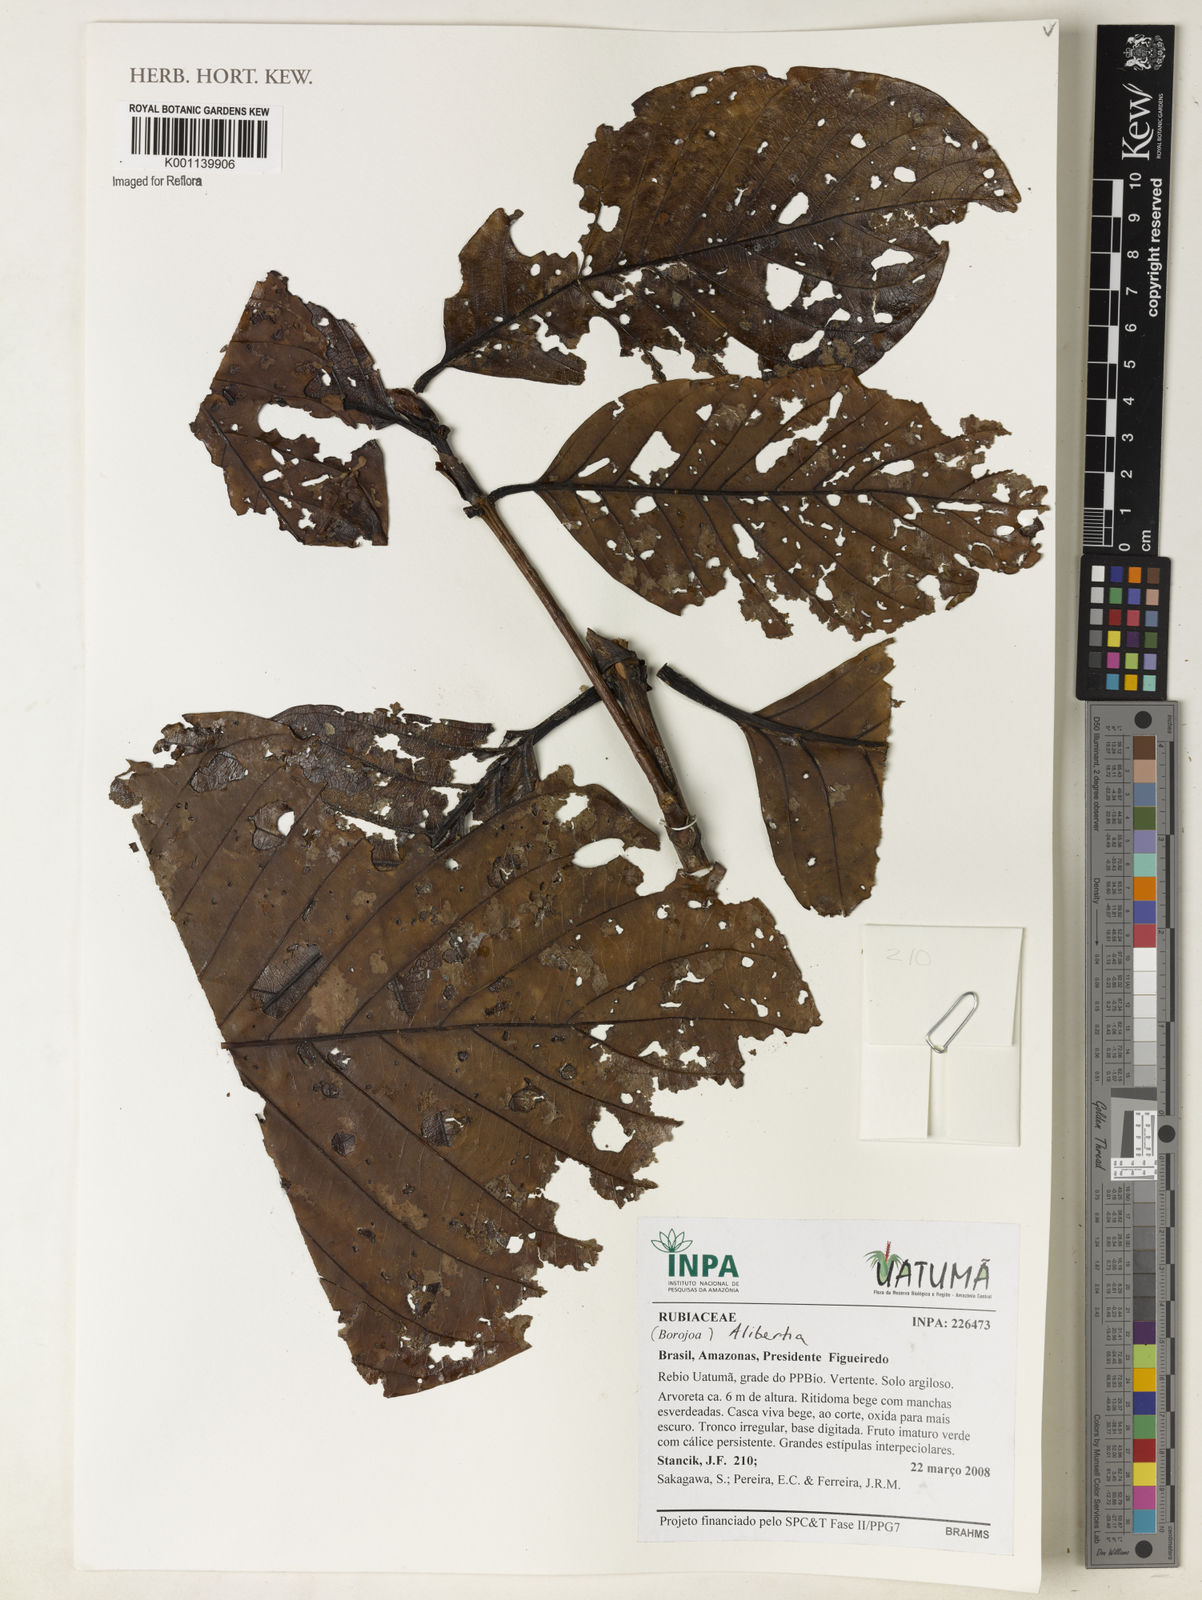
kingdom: Plantae
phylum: Tracheophyta
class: Magnoliopsida
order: Gentianales
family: Rubiaceae
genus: Alibertia
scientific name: Alibertia
